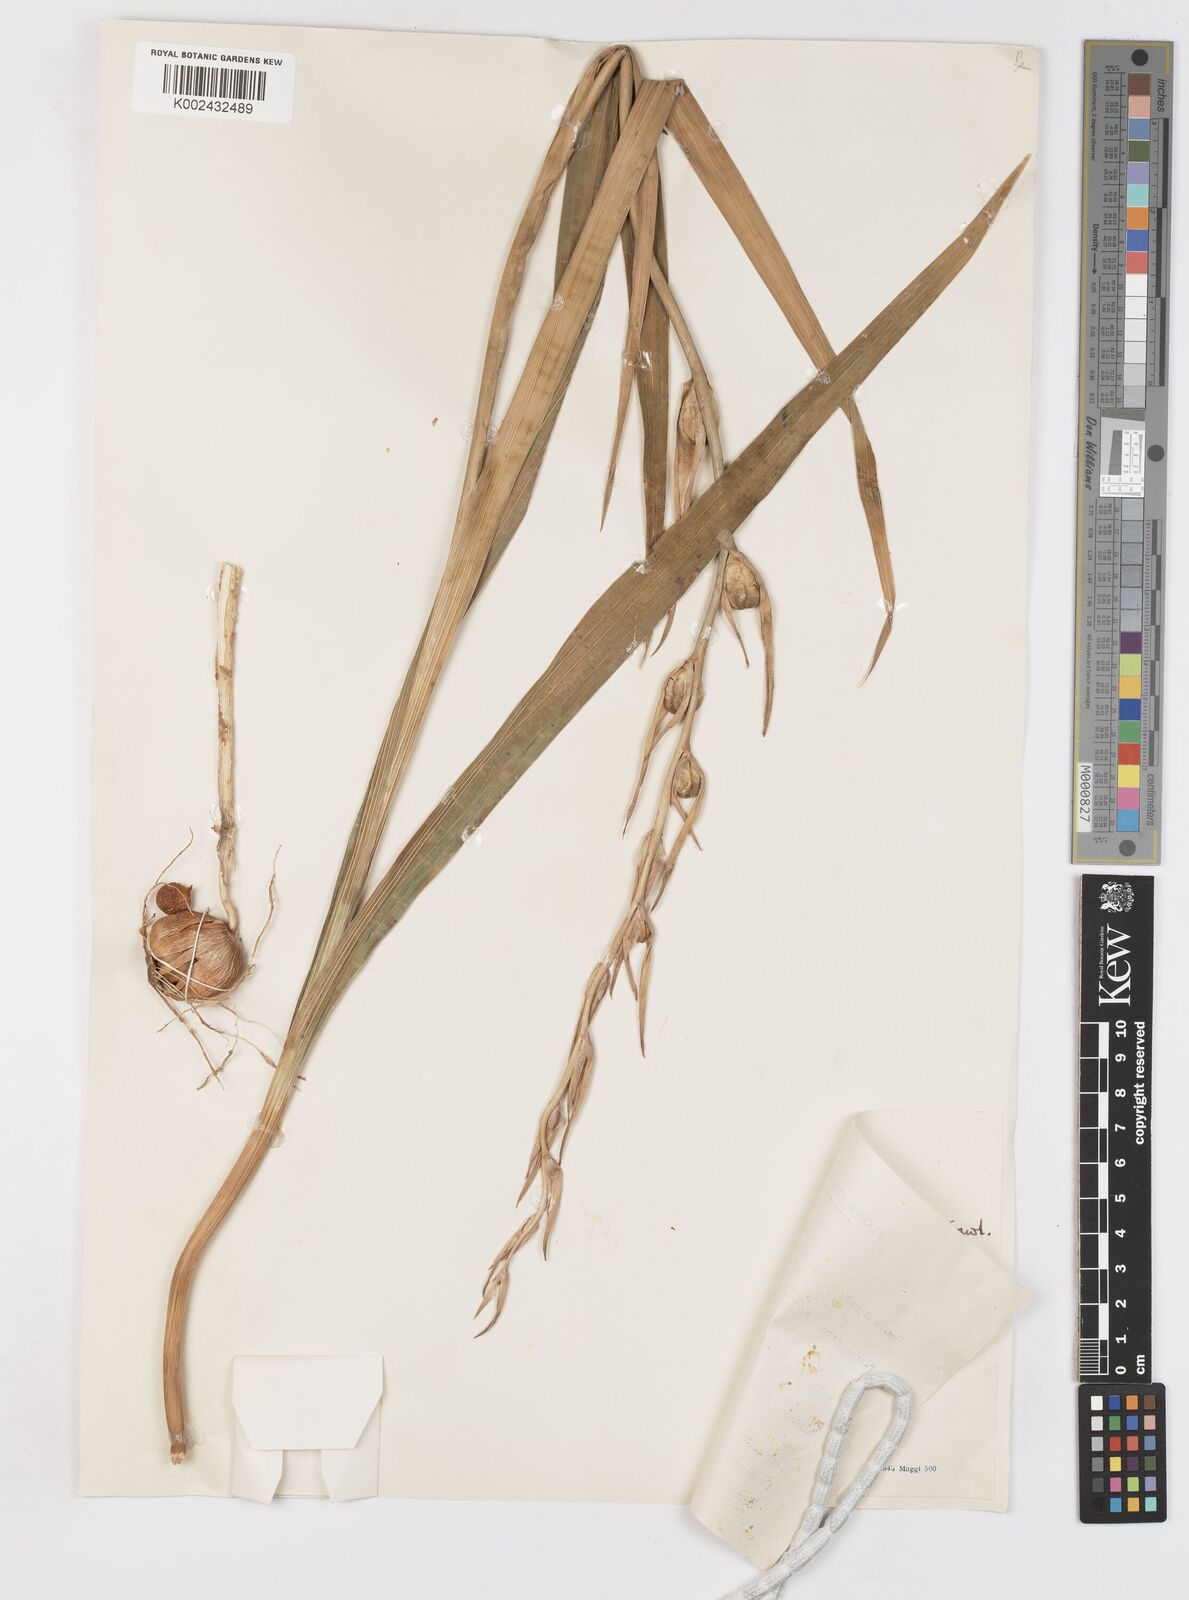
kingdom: Plantae
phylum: Tracheophyta
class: Liliopsida
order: Asparagales
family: Iridaceae
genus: Gladiolus
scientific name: Gladiolus italicus
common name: Field gladiolus
